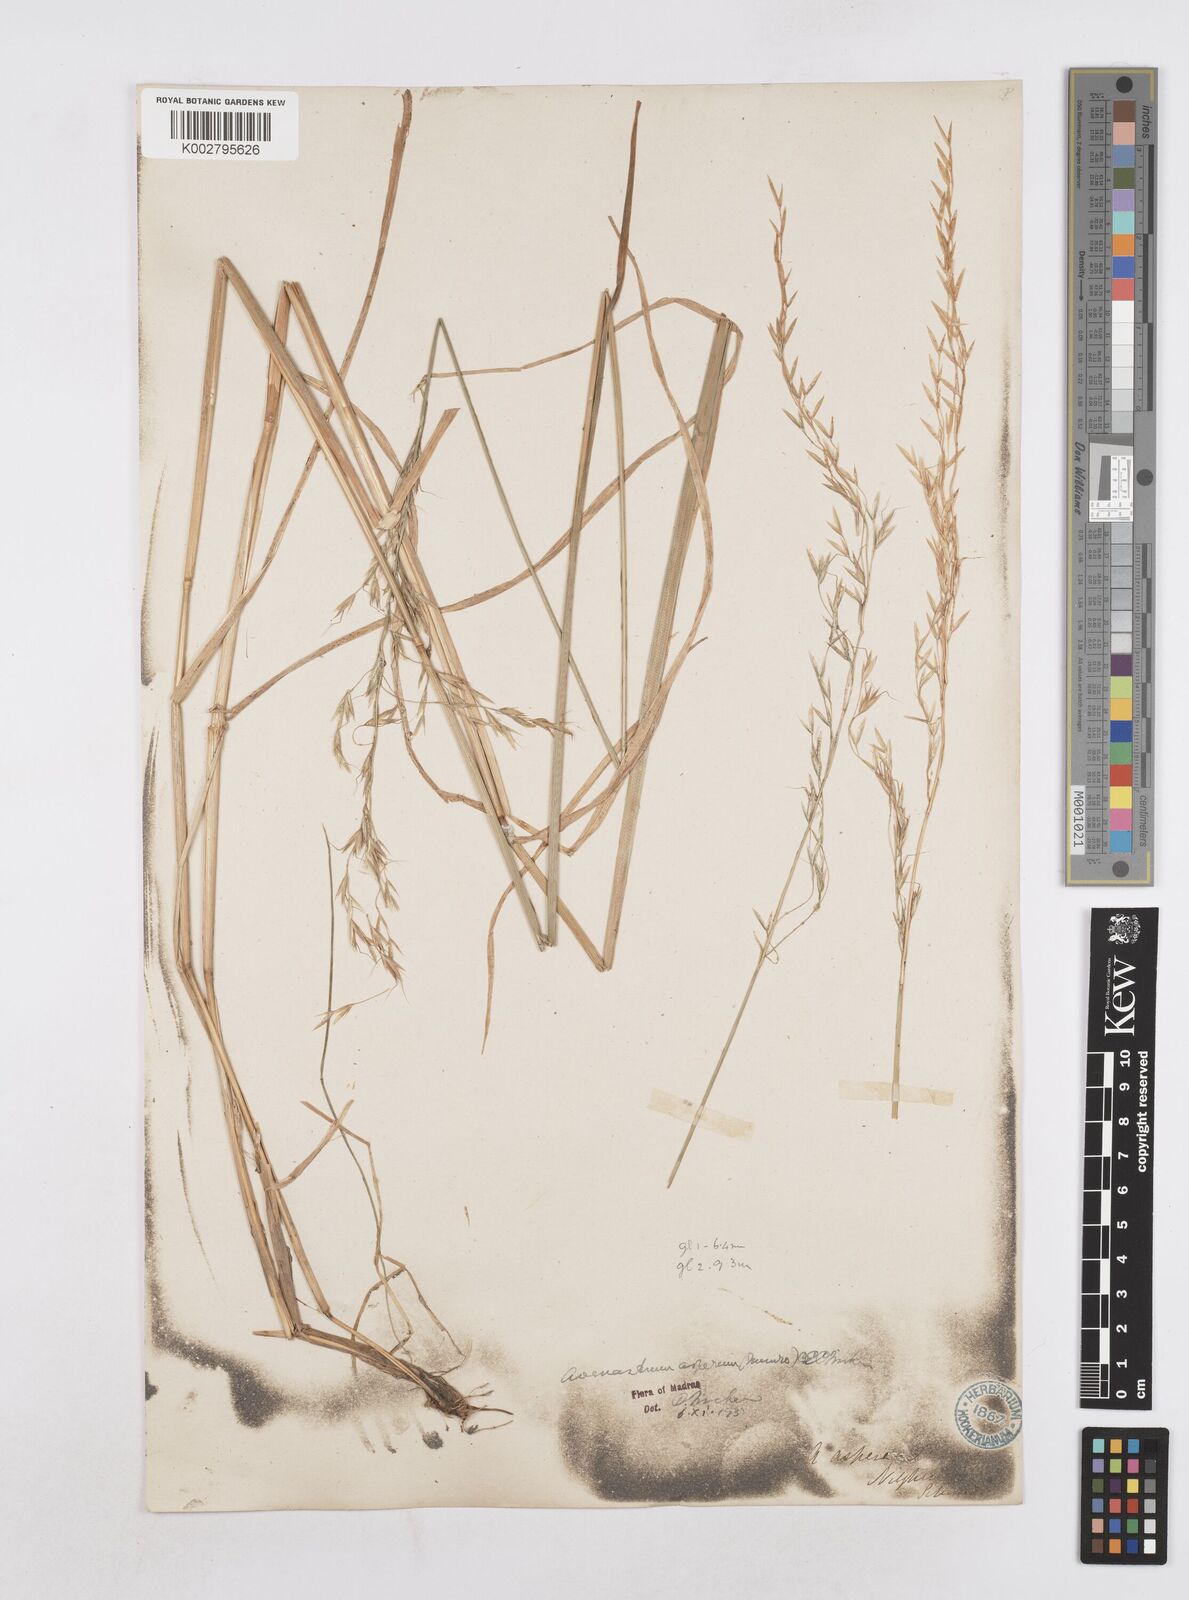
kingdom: Plantae
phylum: Tracheophyta
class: Liliopsida
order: Poales
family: Poaceae
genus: Helictotrichon
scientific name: Helictotrichon
